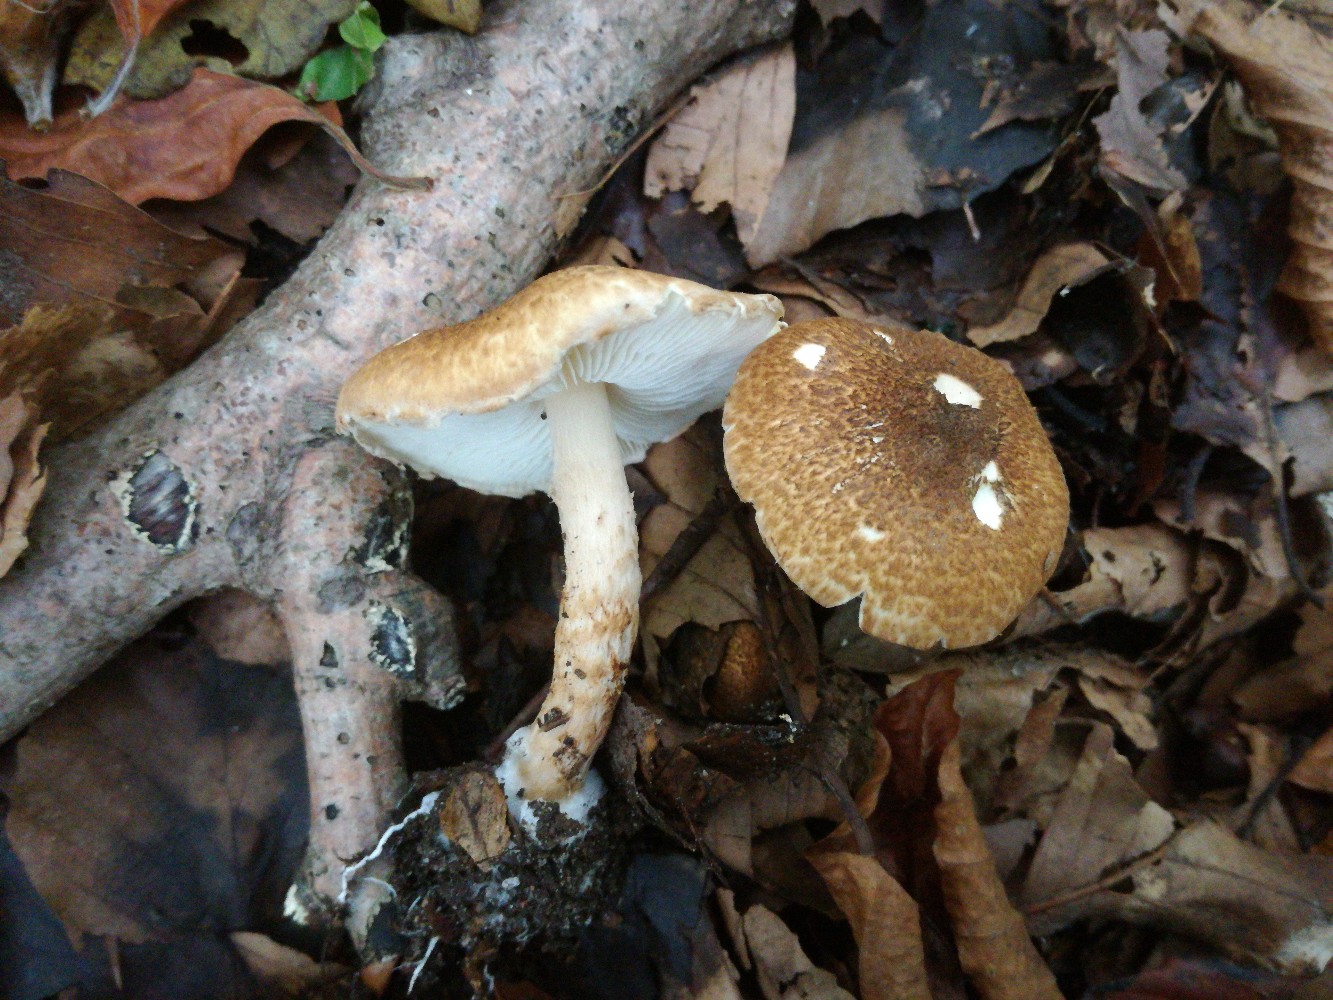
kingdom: Fungi
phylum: Basidiomycota
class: Agaricomycetes
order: Agaricales
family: Agaricaceae
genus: Leucocoprinus
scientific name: Leucocoprinus straminellus
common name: rustbrun parasolhat
